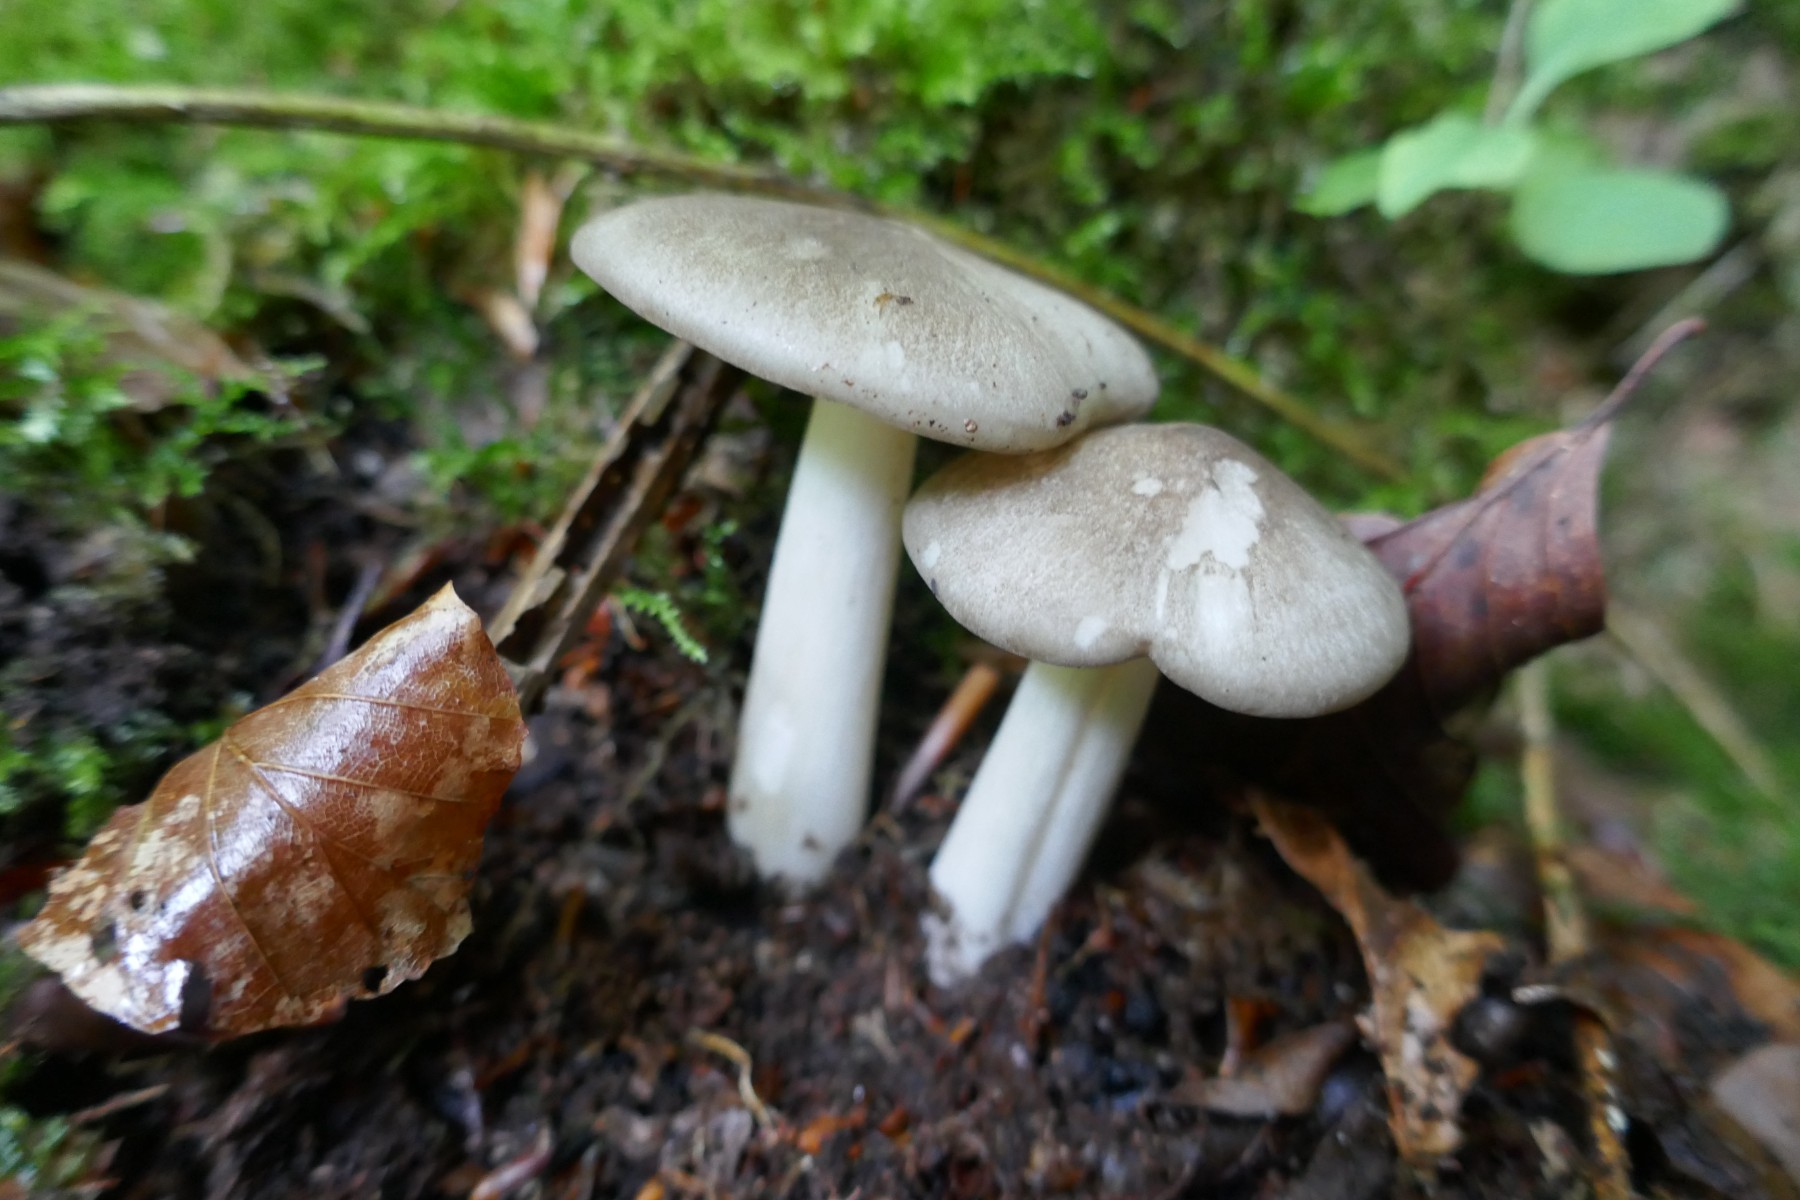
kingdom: Fungi
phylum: Basidiomycota
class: Agaricomycetes
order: Agaricales
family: Tricholomataceae
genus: Megacollybia
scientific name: Megacollybia platyphylla
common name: bredbladet væbnerhat
